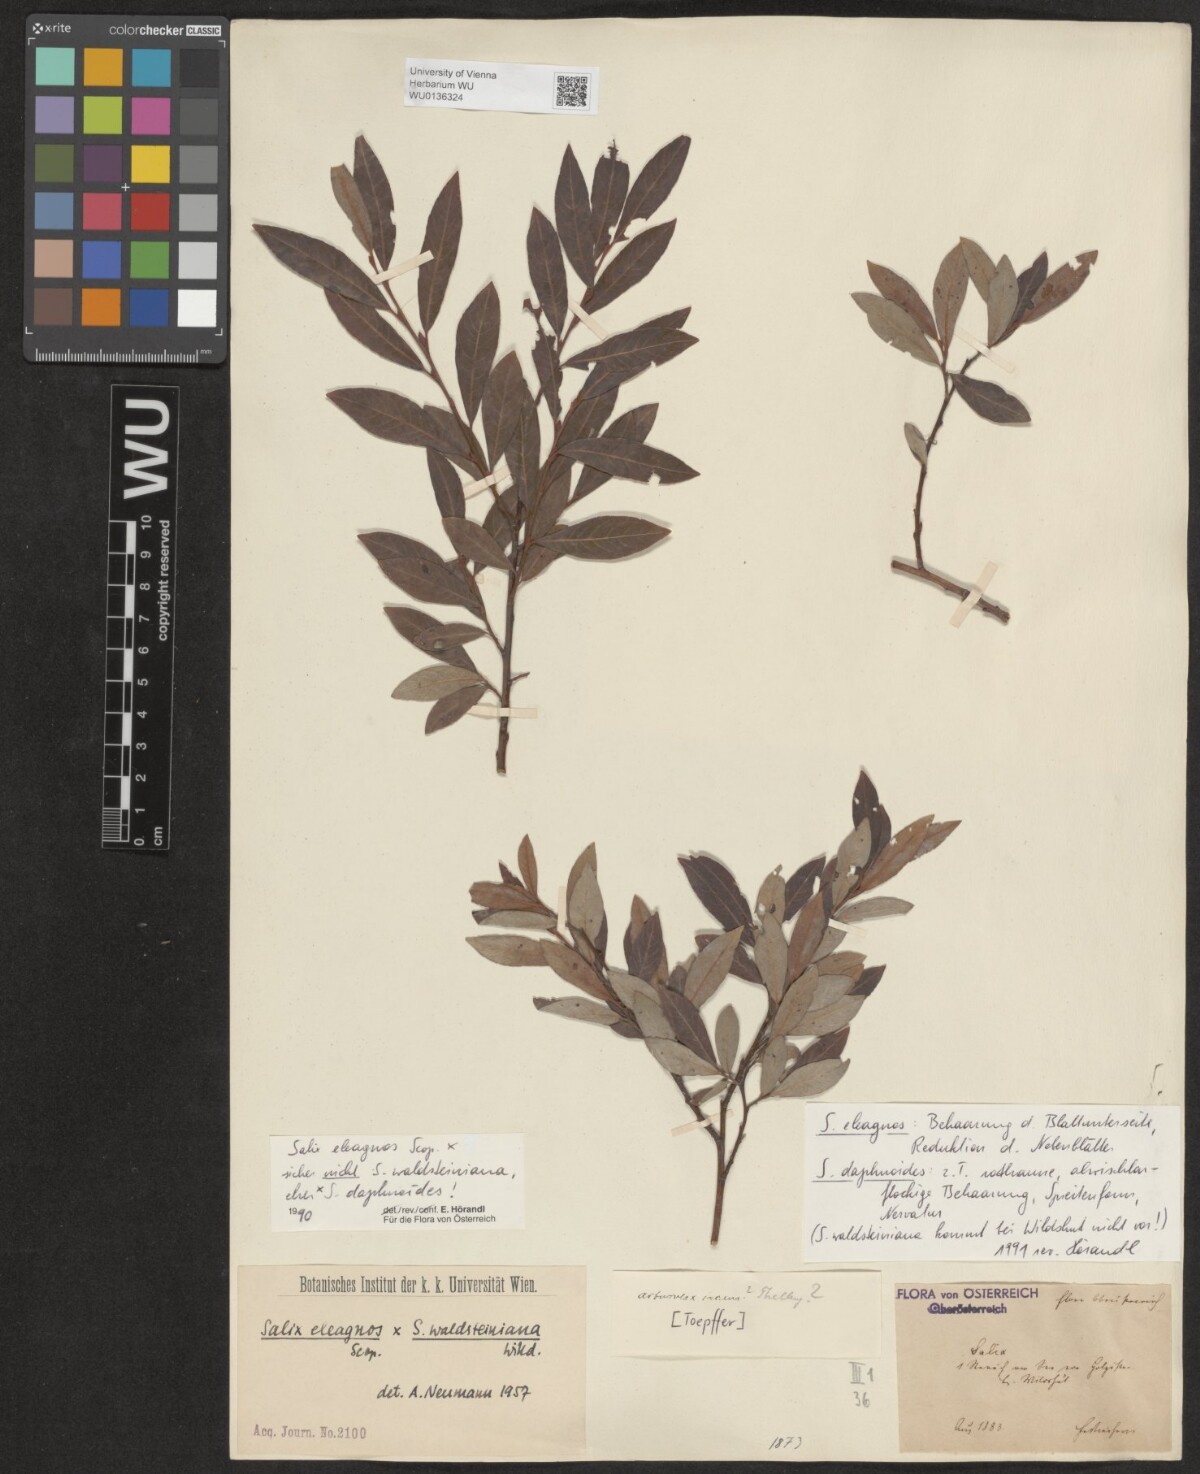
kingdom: Plantae
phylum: Tracheophyta
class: Magnoliopsida
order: Malpighiales
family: Salicaceae
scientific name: Salicaceae
